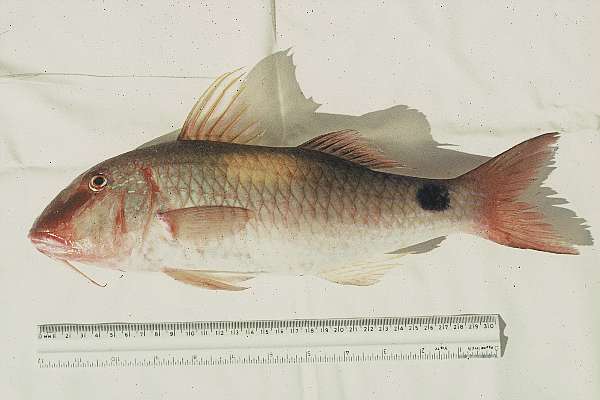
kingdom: Animalia
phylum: Chordata
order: Perciformes
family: Mullidae
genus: Parupeneus
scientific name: Parupeneus indicus
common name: Indian goatfish
